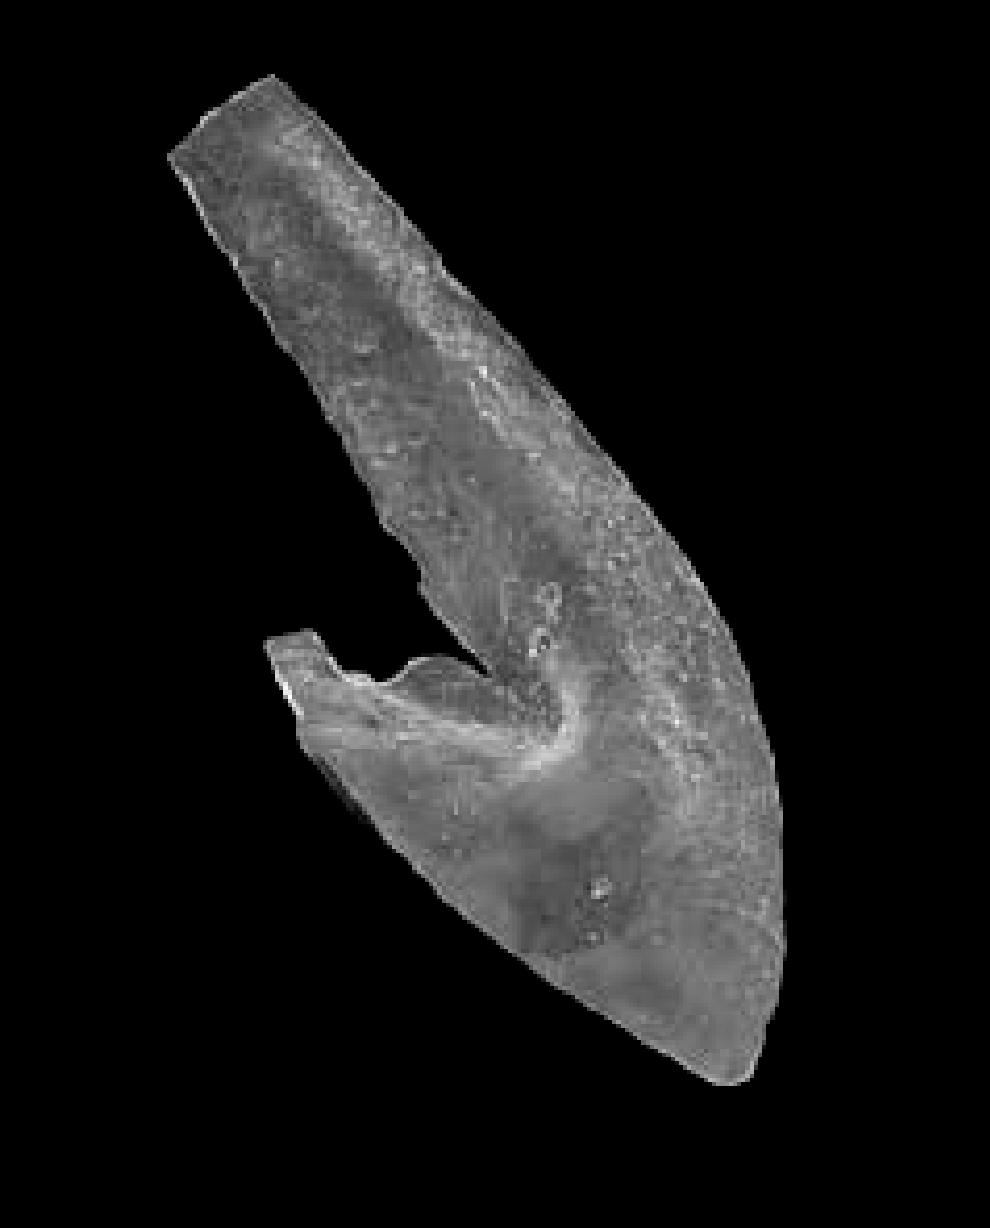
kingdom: Animalia
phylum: Chordata
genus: Periodon
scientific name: Periodon
